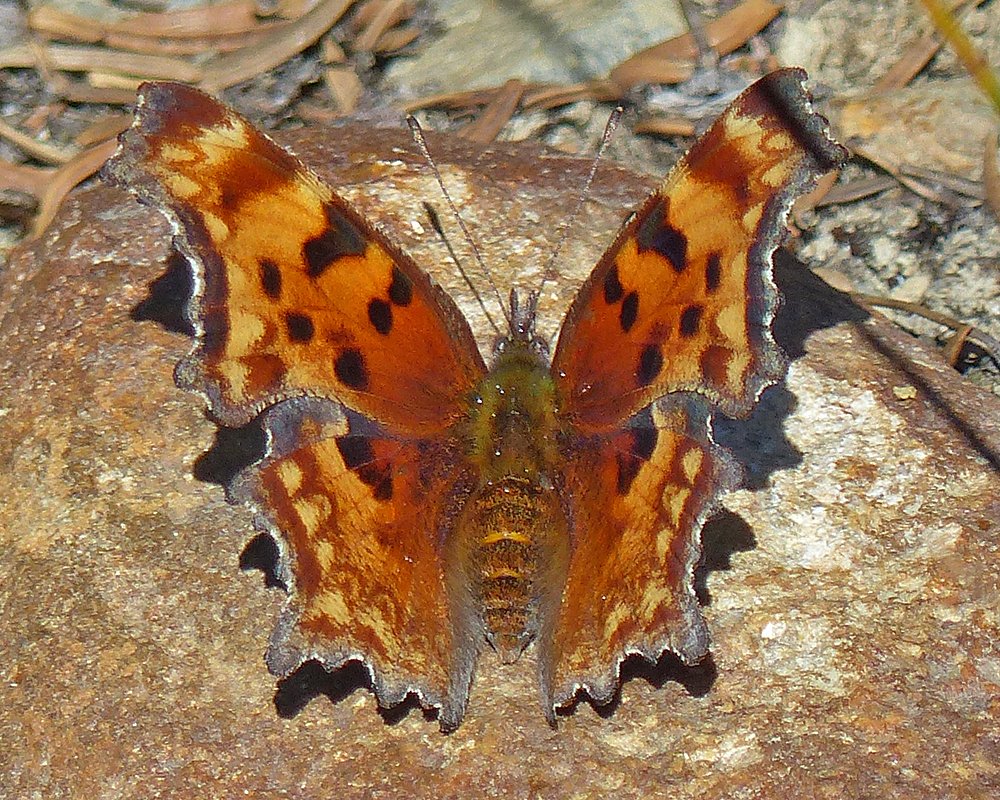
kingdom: Animalia
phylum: Arthropoda
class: Insecta
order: Lepidoptera
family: Nymphalidae
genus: Polygonia
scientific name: Polygonia gracilis
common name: Hoary Comma
